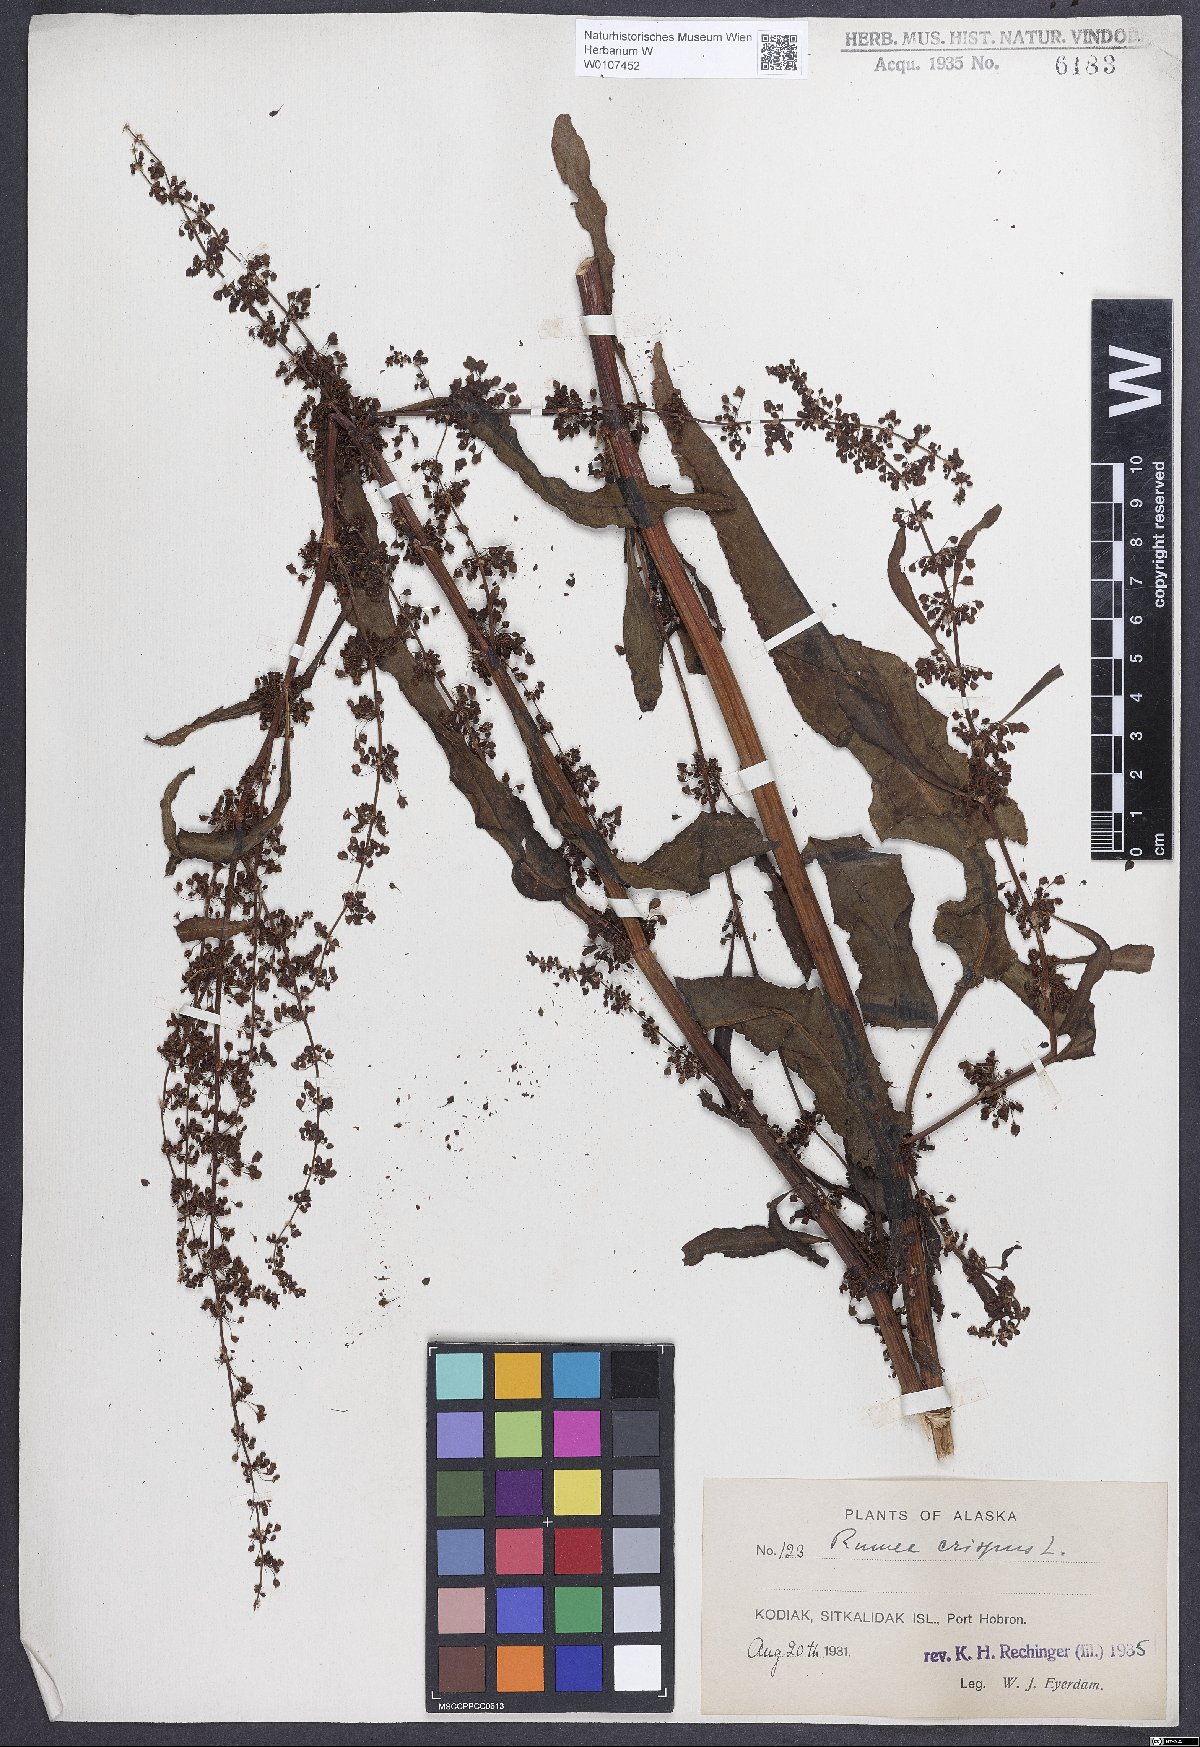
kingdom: Plantae
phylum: Tracheophyta
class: Magnoliopsida
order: Caryophyllales
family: Polygonaceae
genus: Rumex
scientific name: Rumex crispus
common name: Curled dock
